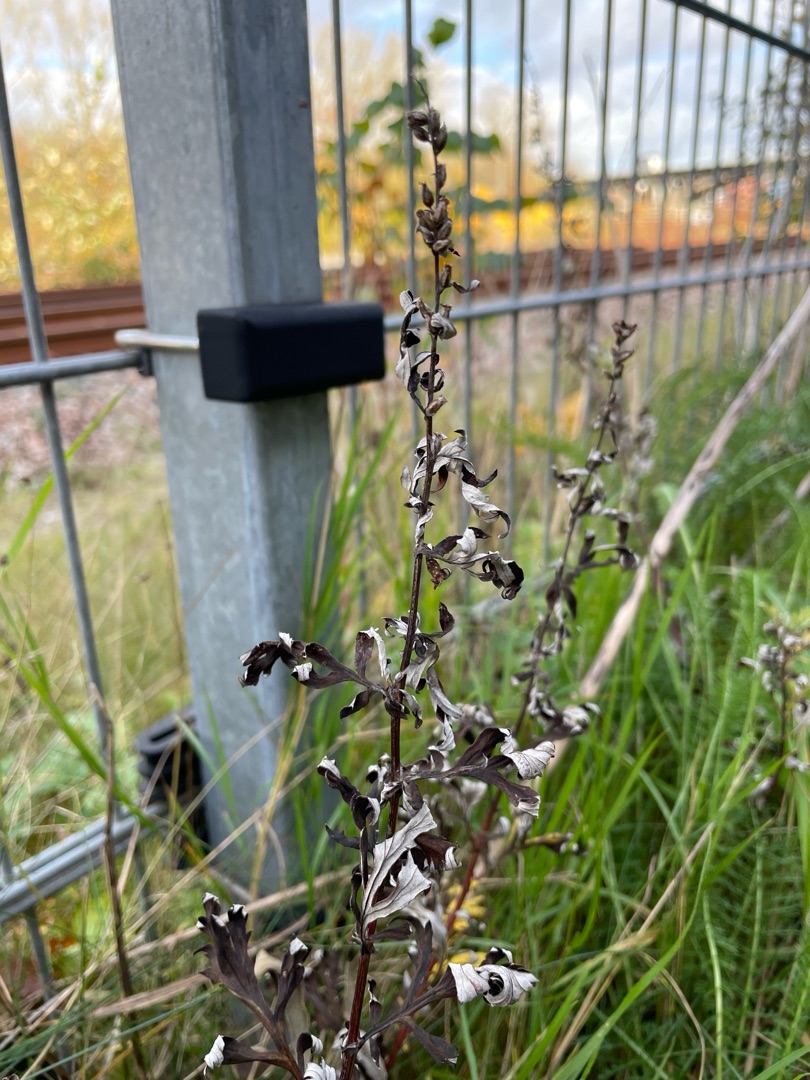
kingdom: Plantae
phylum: Tracheophyta
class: Magnoliopsida
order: Asterales
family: Asteraceae
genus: Artemisia
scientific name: Artemisia vulgaris
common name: Grå-bynke
